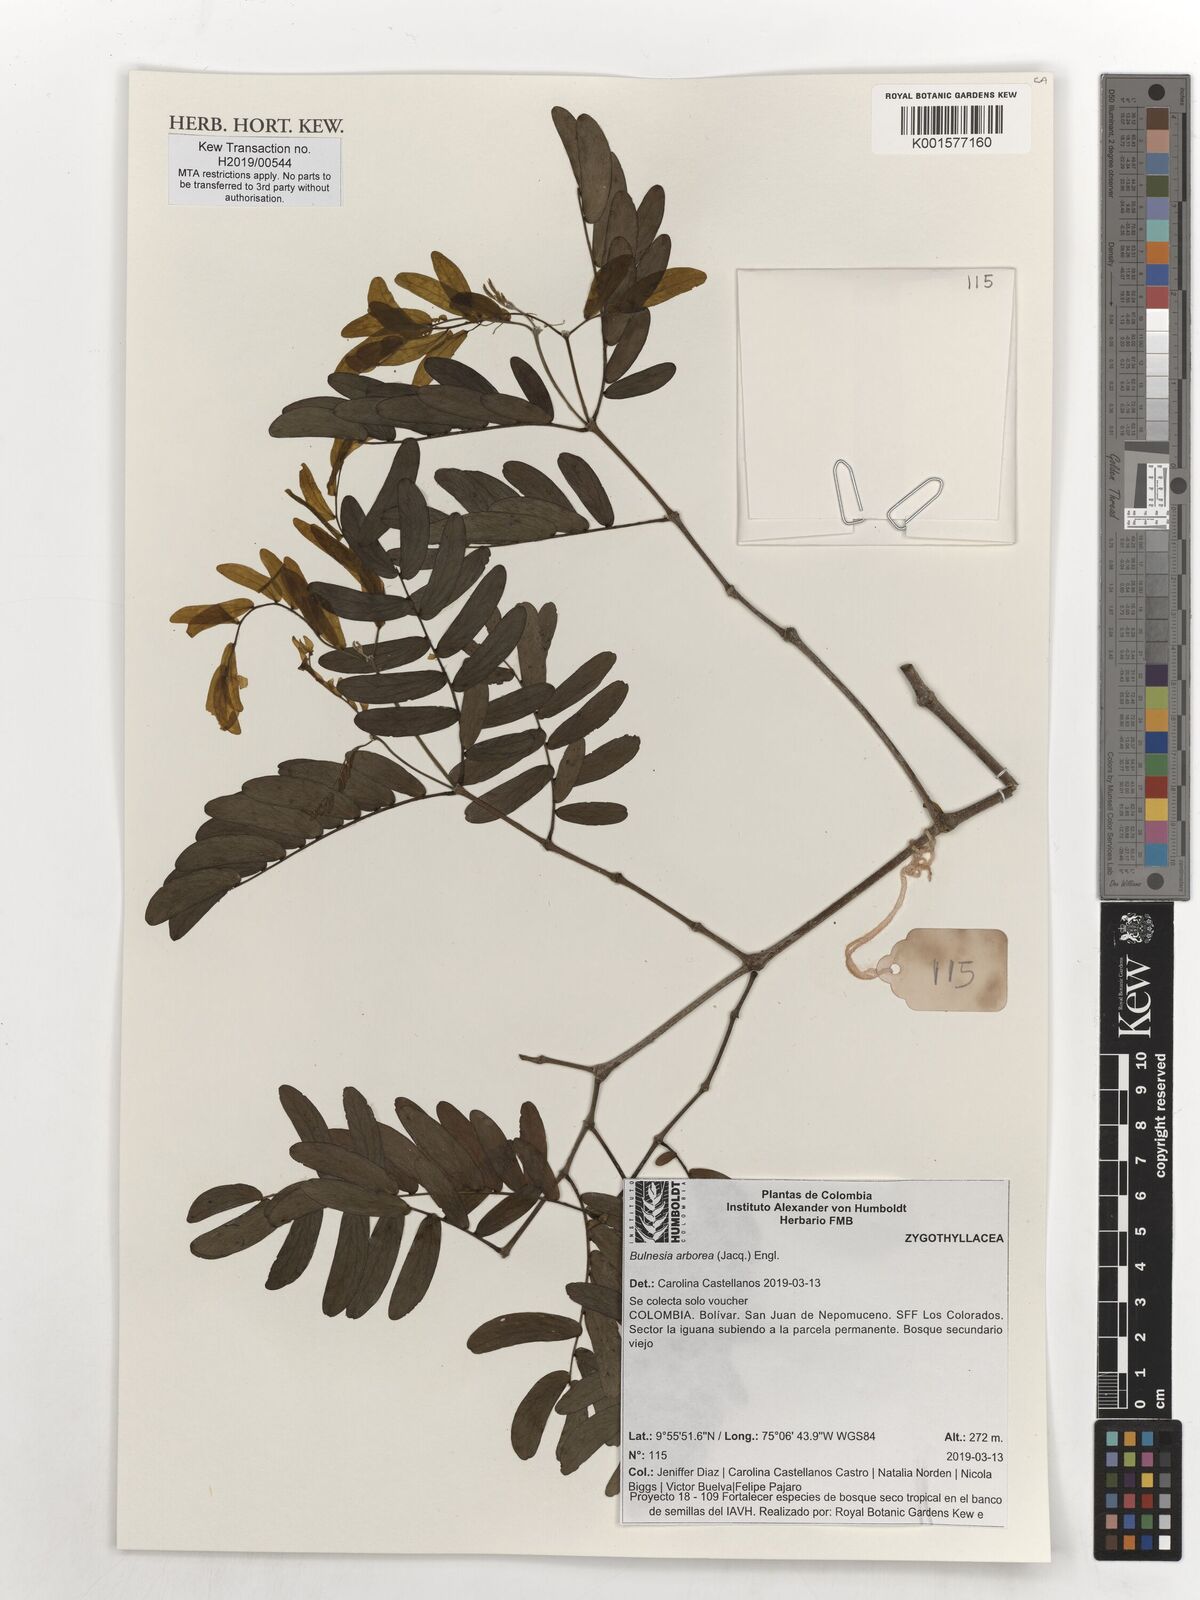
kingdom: Plantae
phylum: Tracheophyta
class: Magnoliopsida
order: Zygophyllales
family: Zygophyllaceae
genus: Gonopterodendron
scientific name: Gonopterodendron arboreum
